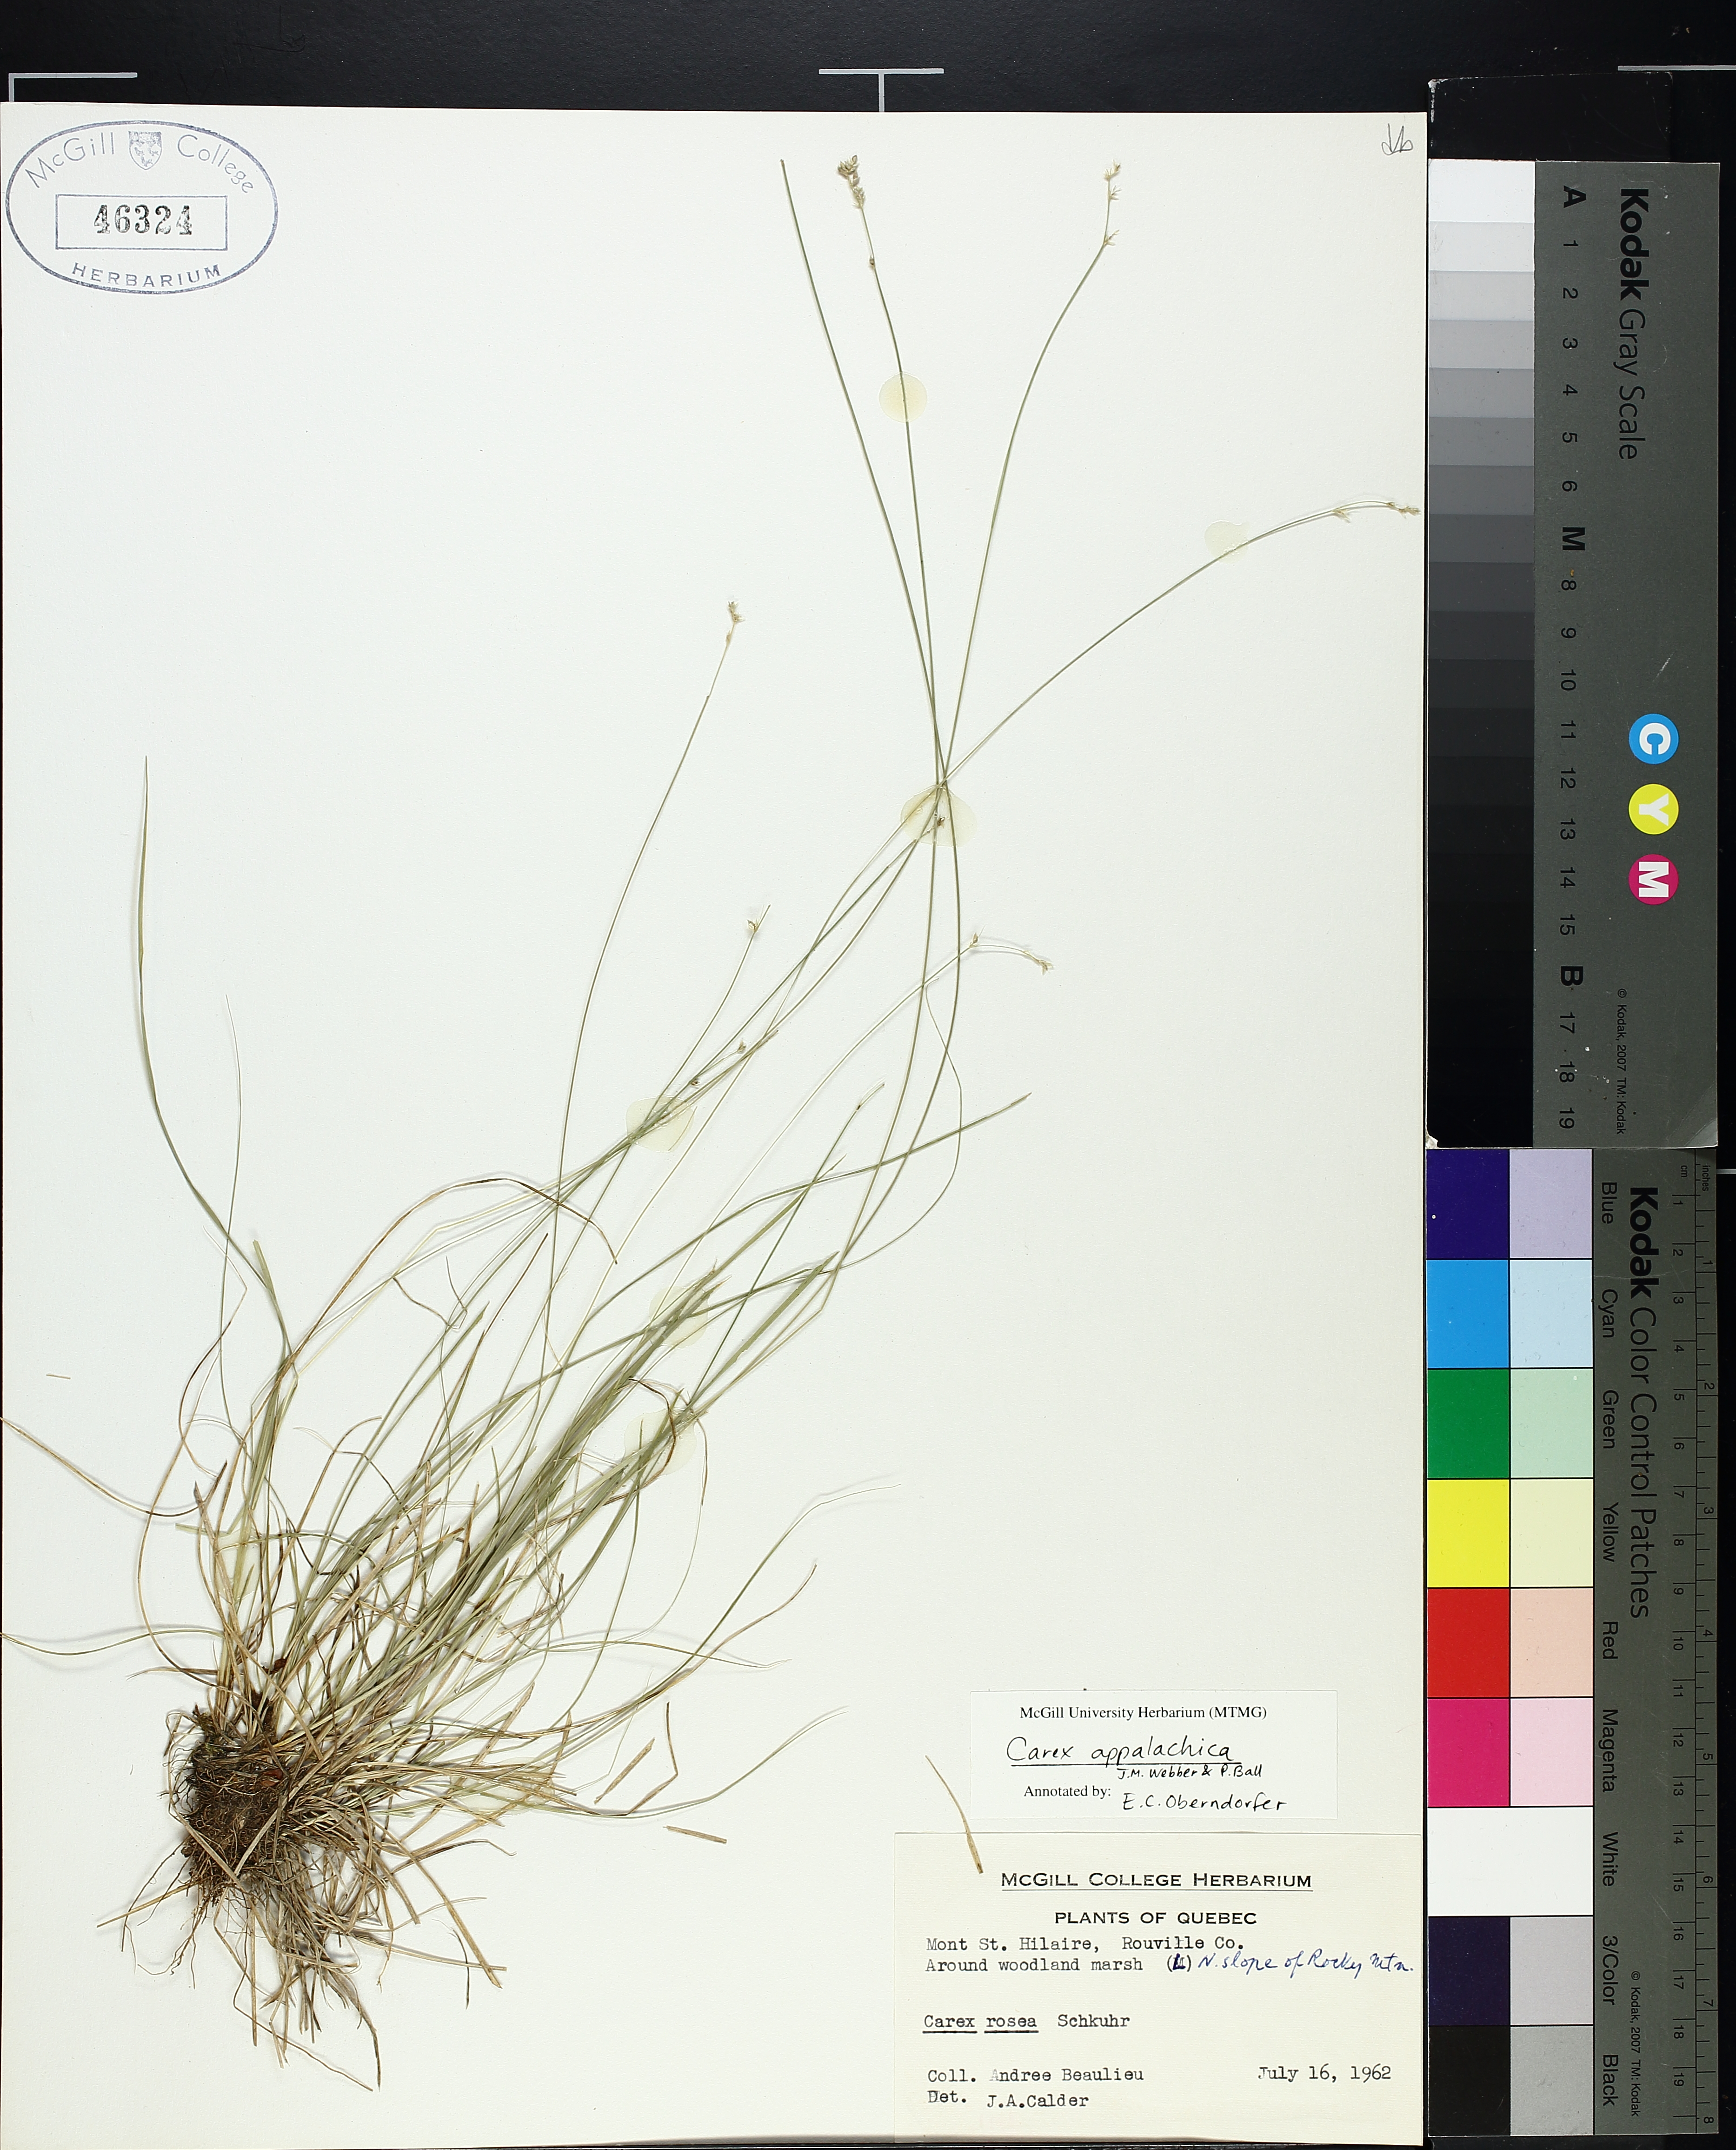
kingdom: Plantae
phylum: Tracheophyta
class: Liliopsida
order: Poales
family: Cyperaceae
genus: Carex
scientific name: Carex appalachica
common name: Appalachian sedge
